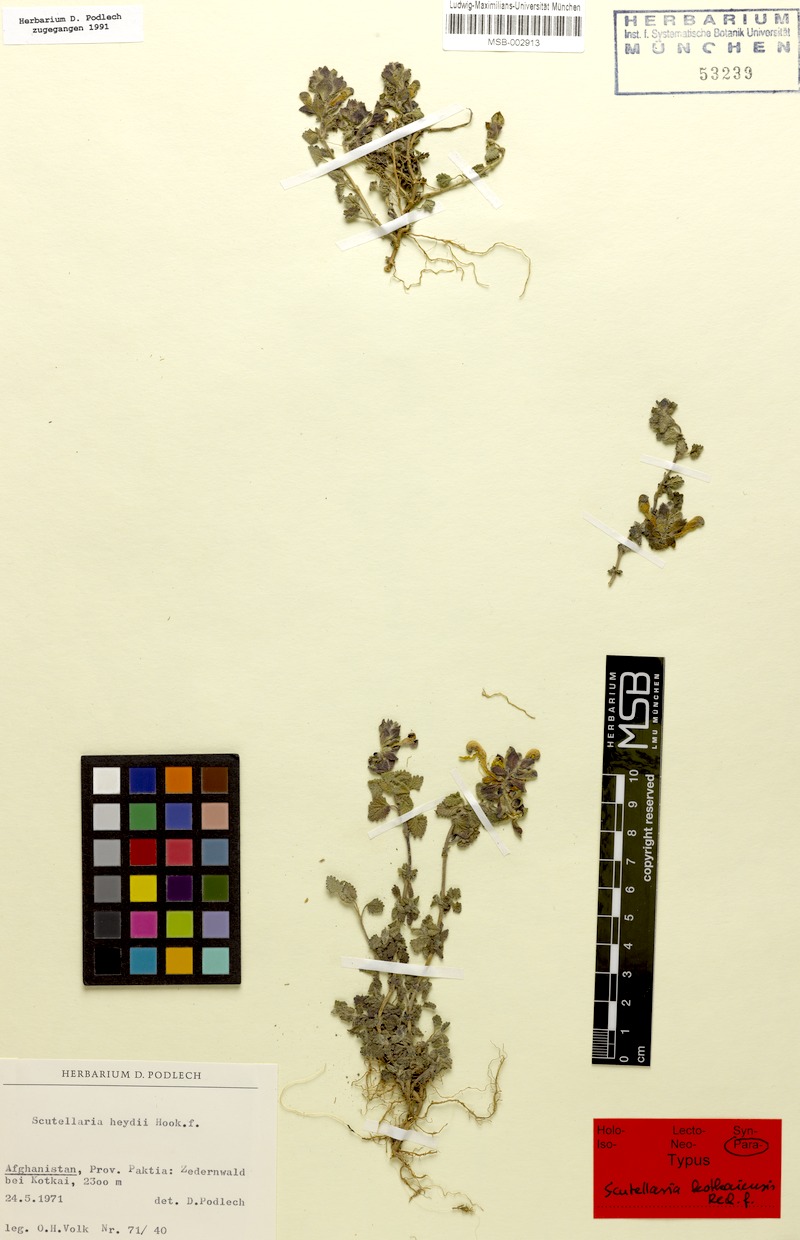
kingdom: Plantae
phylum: Tracheophyta
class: Magnoliopsida
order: Lamiales
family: Lamiaceae
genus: Scutellaria
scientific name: Scutellaria kotkaiensis
